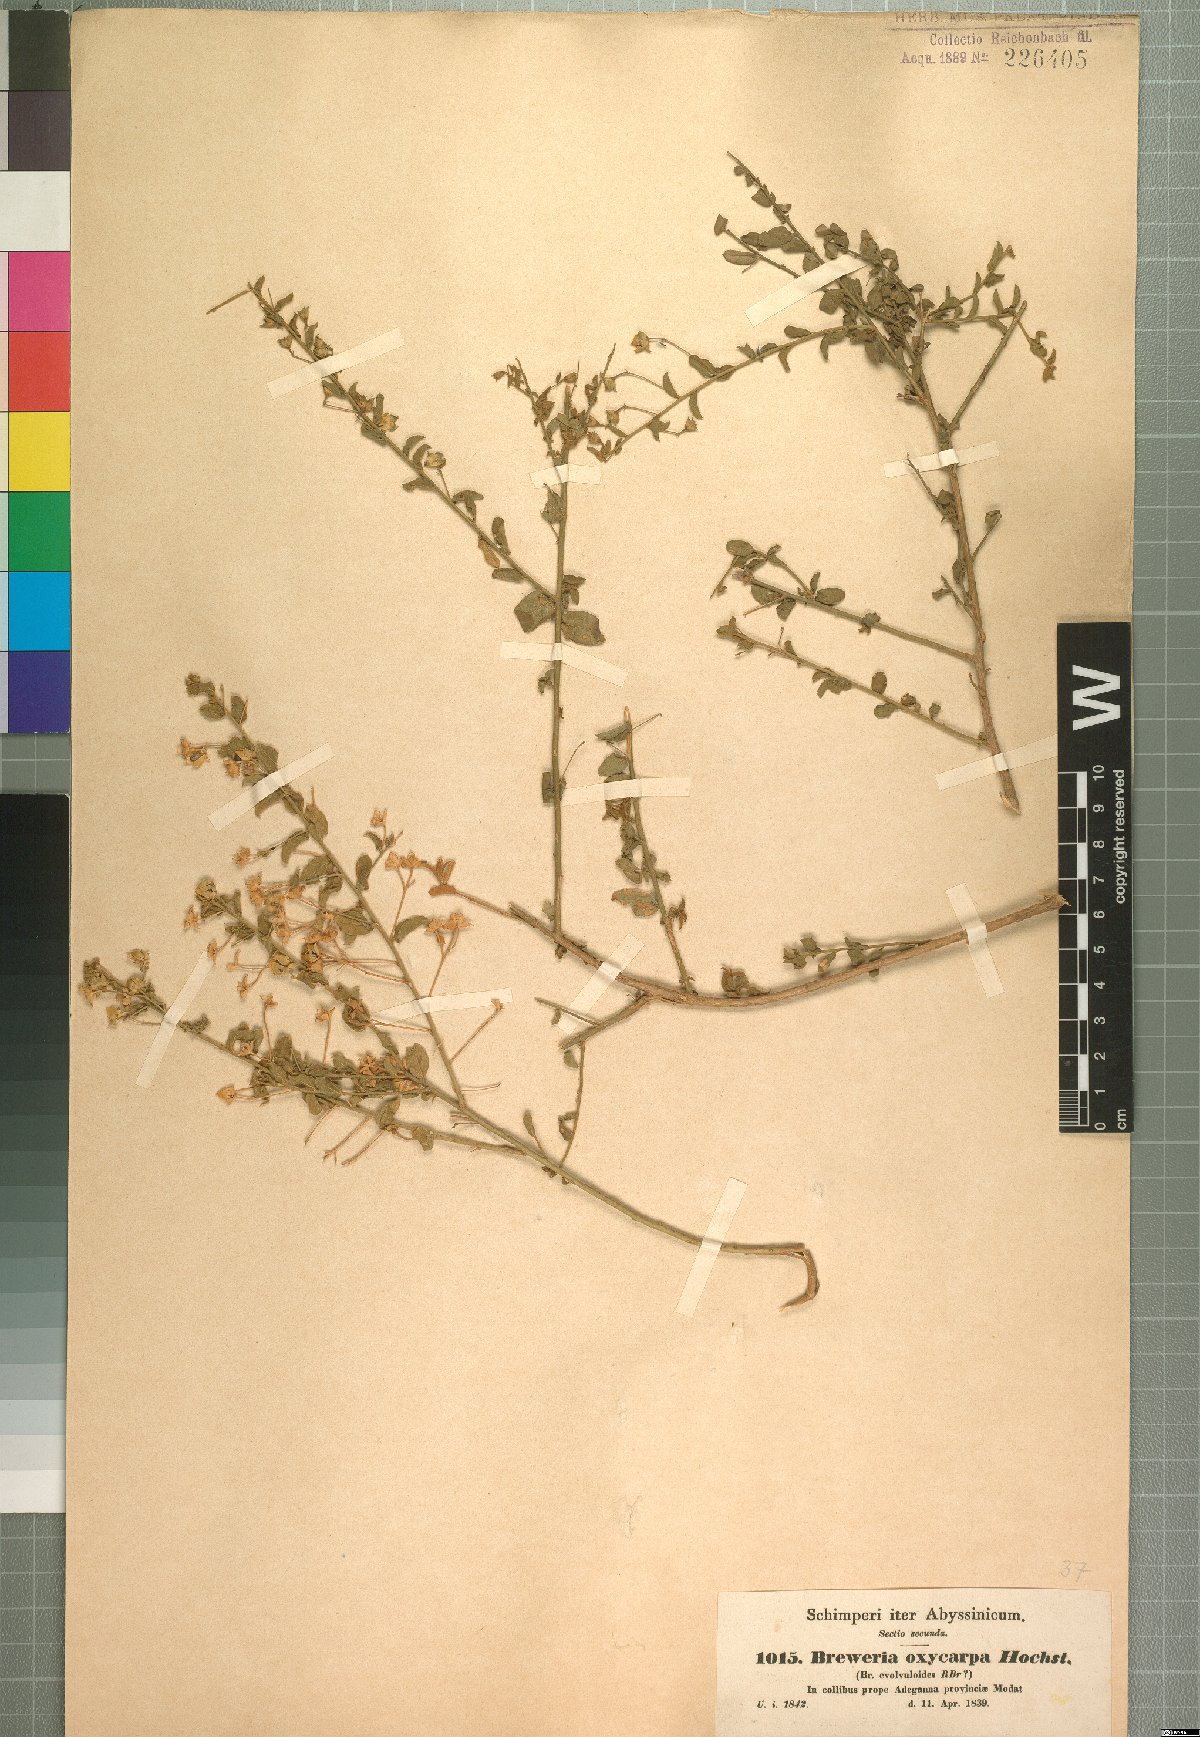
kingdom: Plantae
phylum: Tracheophyta
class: Magnoliopsida
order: Solanales
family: Convolvulaceae
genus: Seddera
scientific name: Seddera arabica
